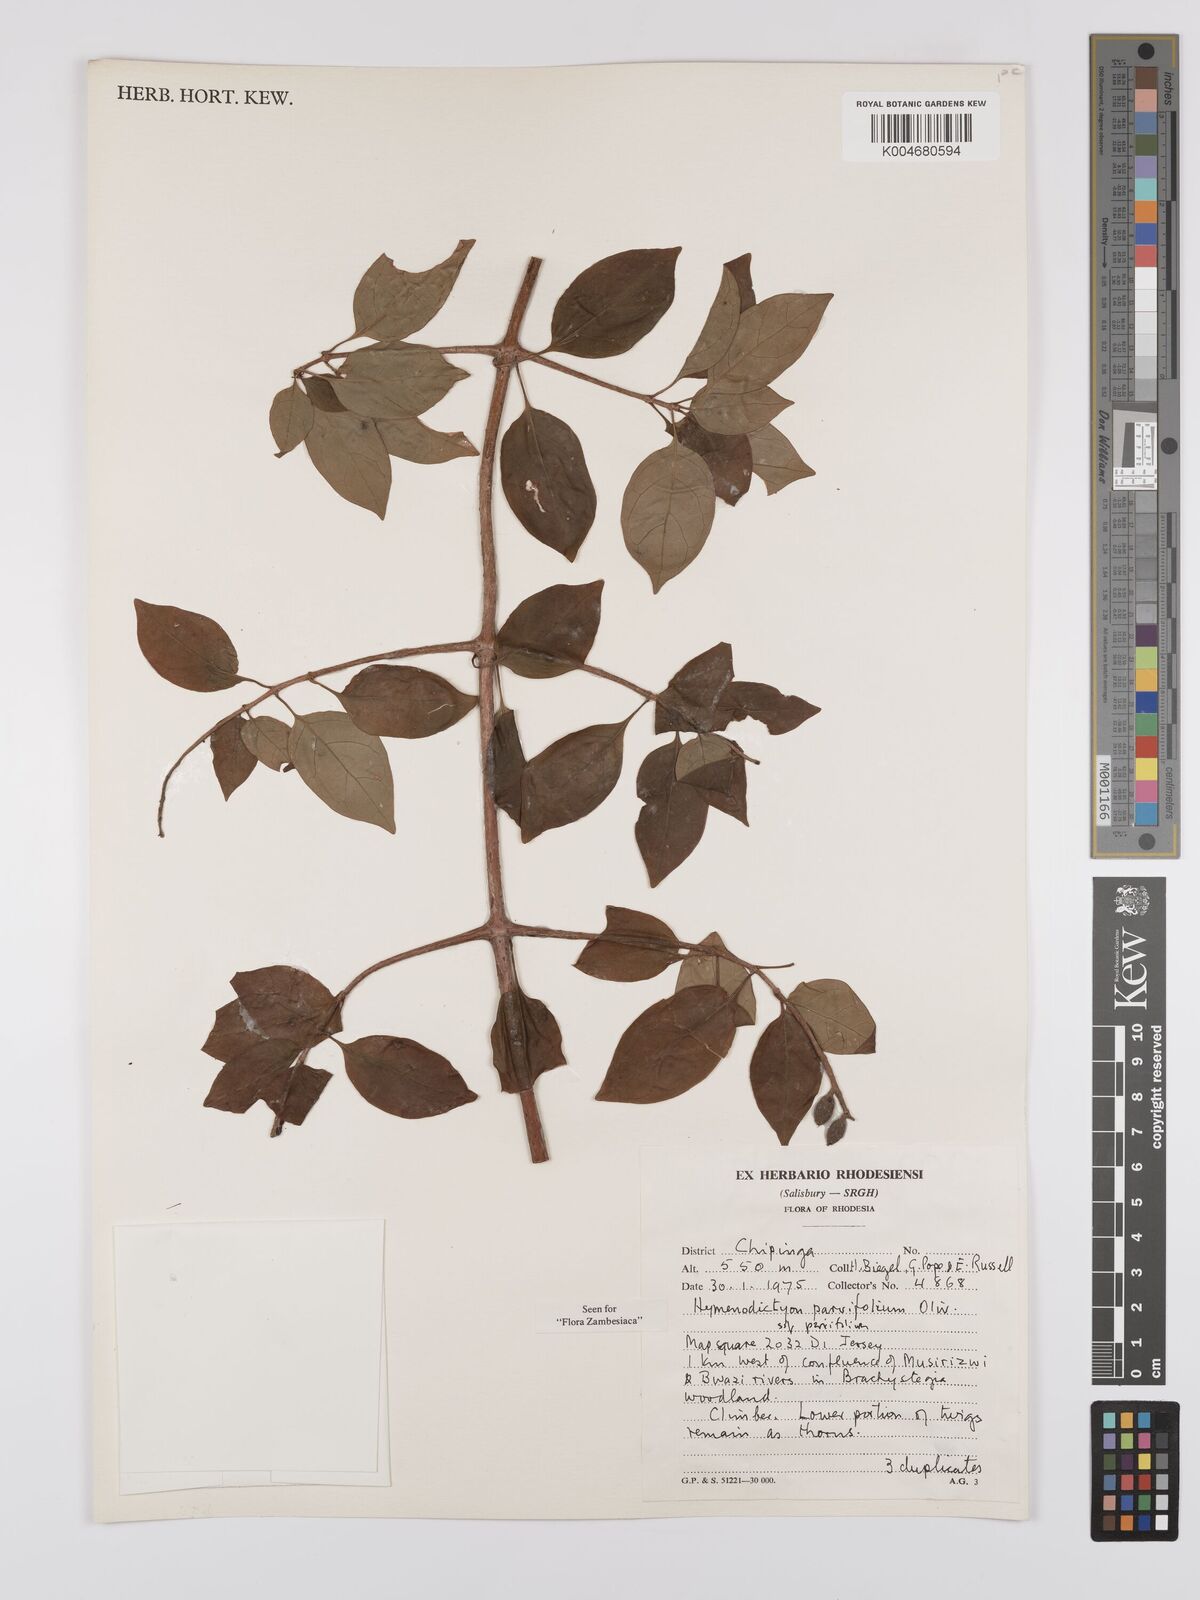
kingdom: Plantae
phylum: Tracheophyta
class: Magnoliopsida
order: Gentianales
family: Rubiaceae
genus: Hymenodictyon
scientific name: Hymenodictyon parvifolium
